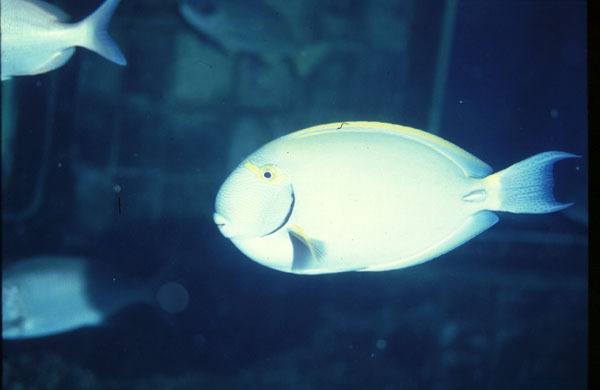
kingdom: Animalia
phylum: Chordata
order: Perciformes
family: Acanthuridae
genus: Acanthurus
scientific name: Acanthurus dussumieri
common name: Dussumier's surgeonfish
